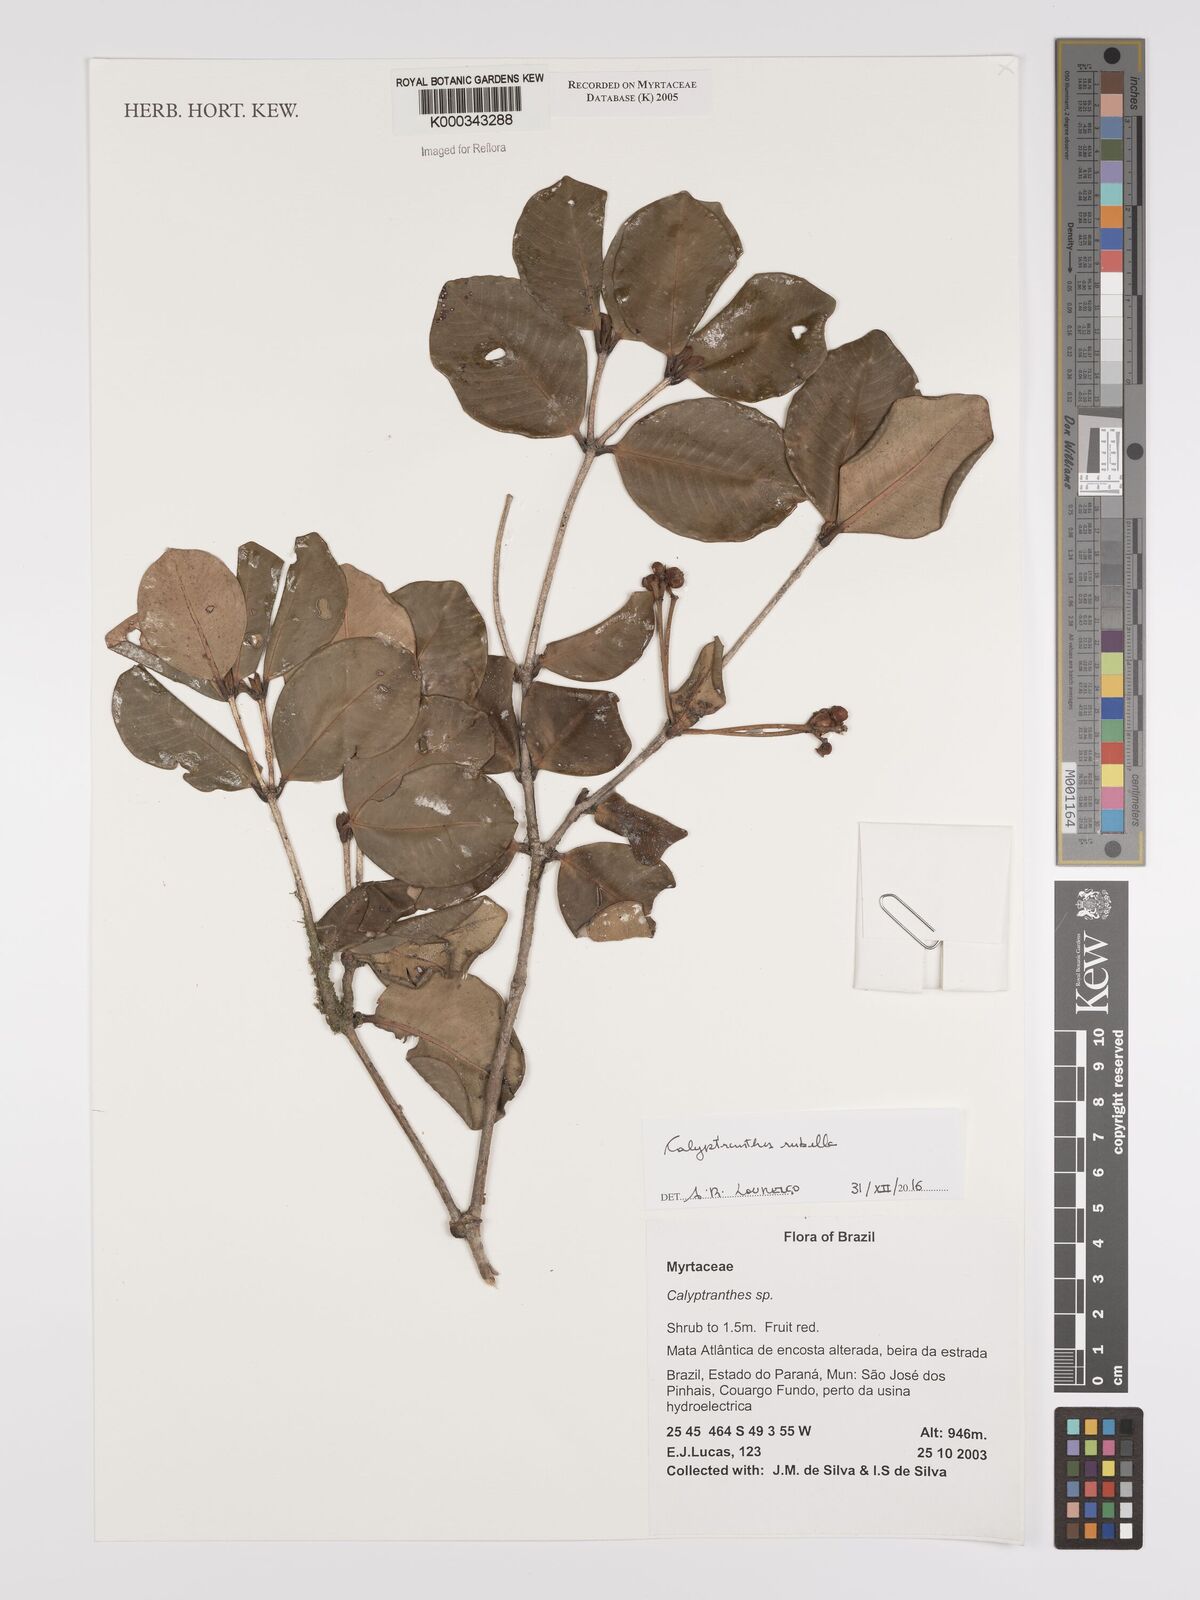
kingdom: Plantae
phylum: Tracheophyta
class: Magnoliopsida
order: Myrtales
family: Myrtaceae
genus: Calyptranthes
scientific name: Calyptranthes
